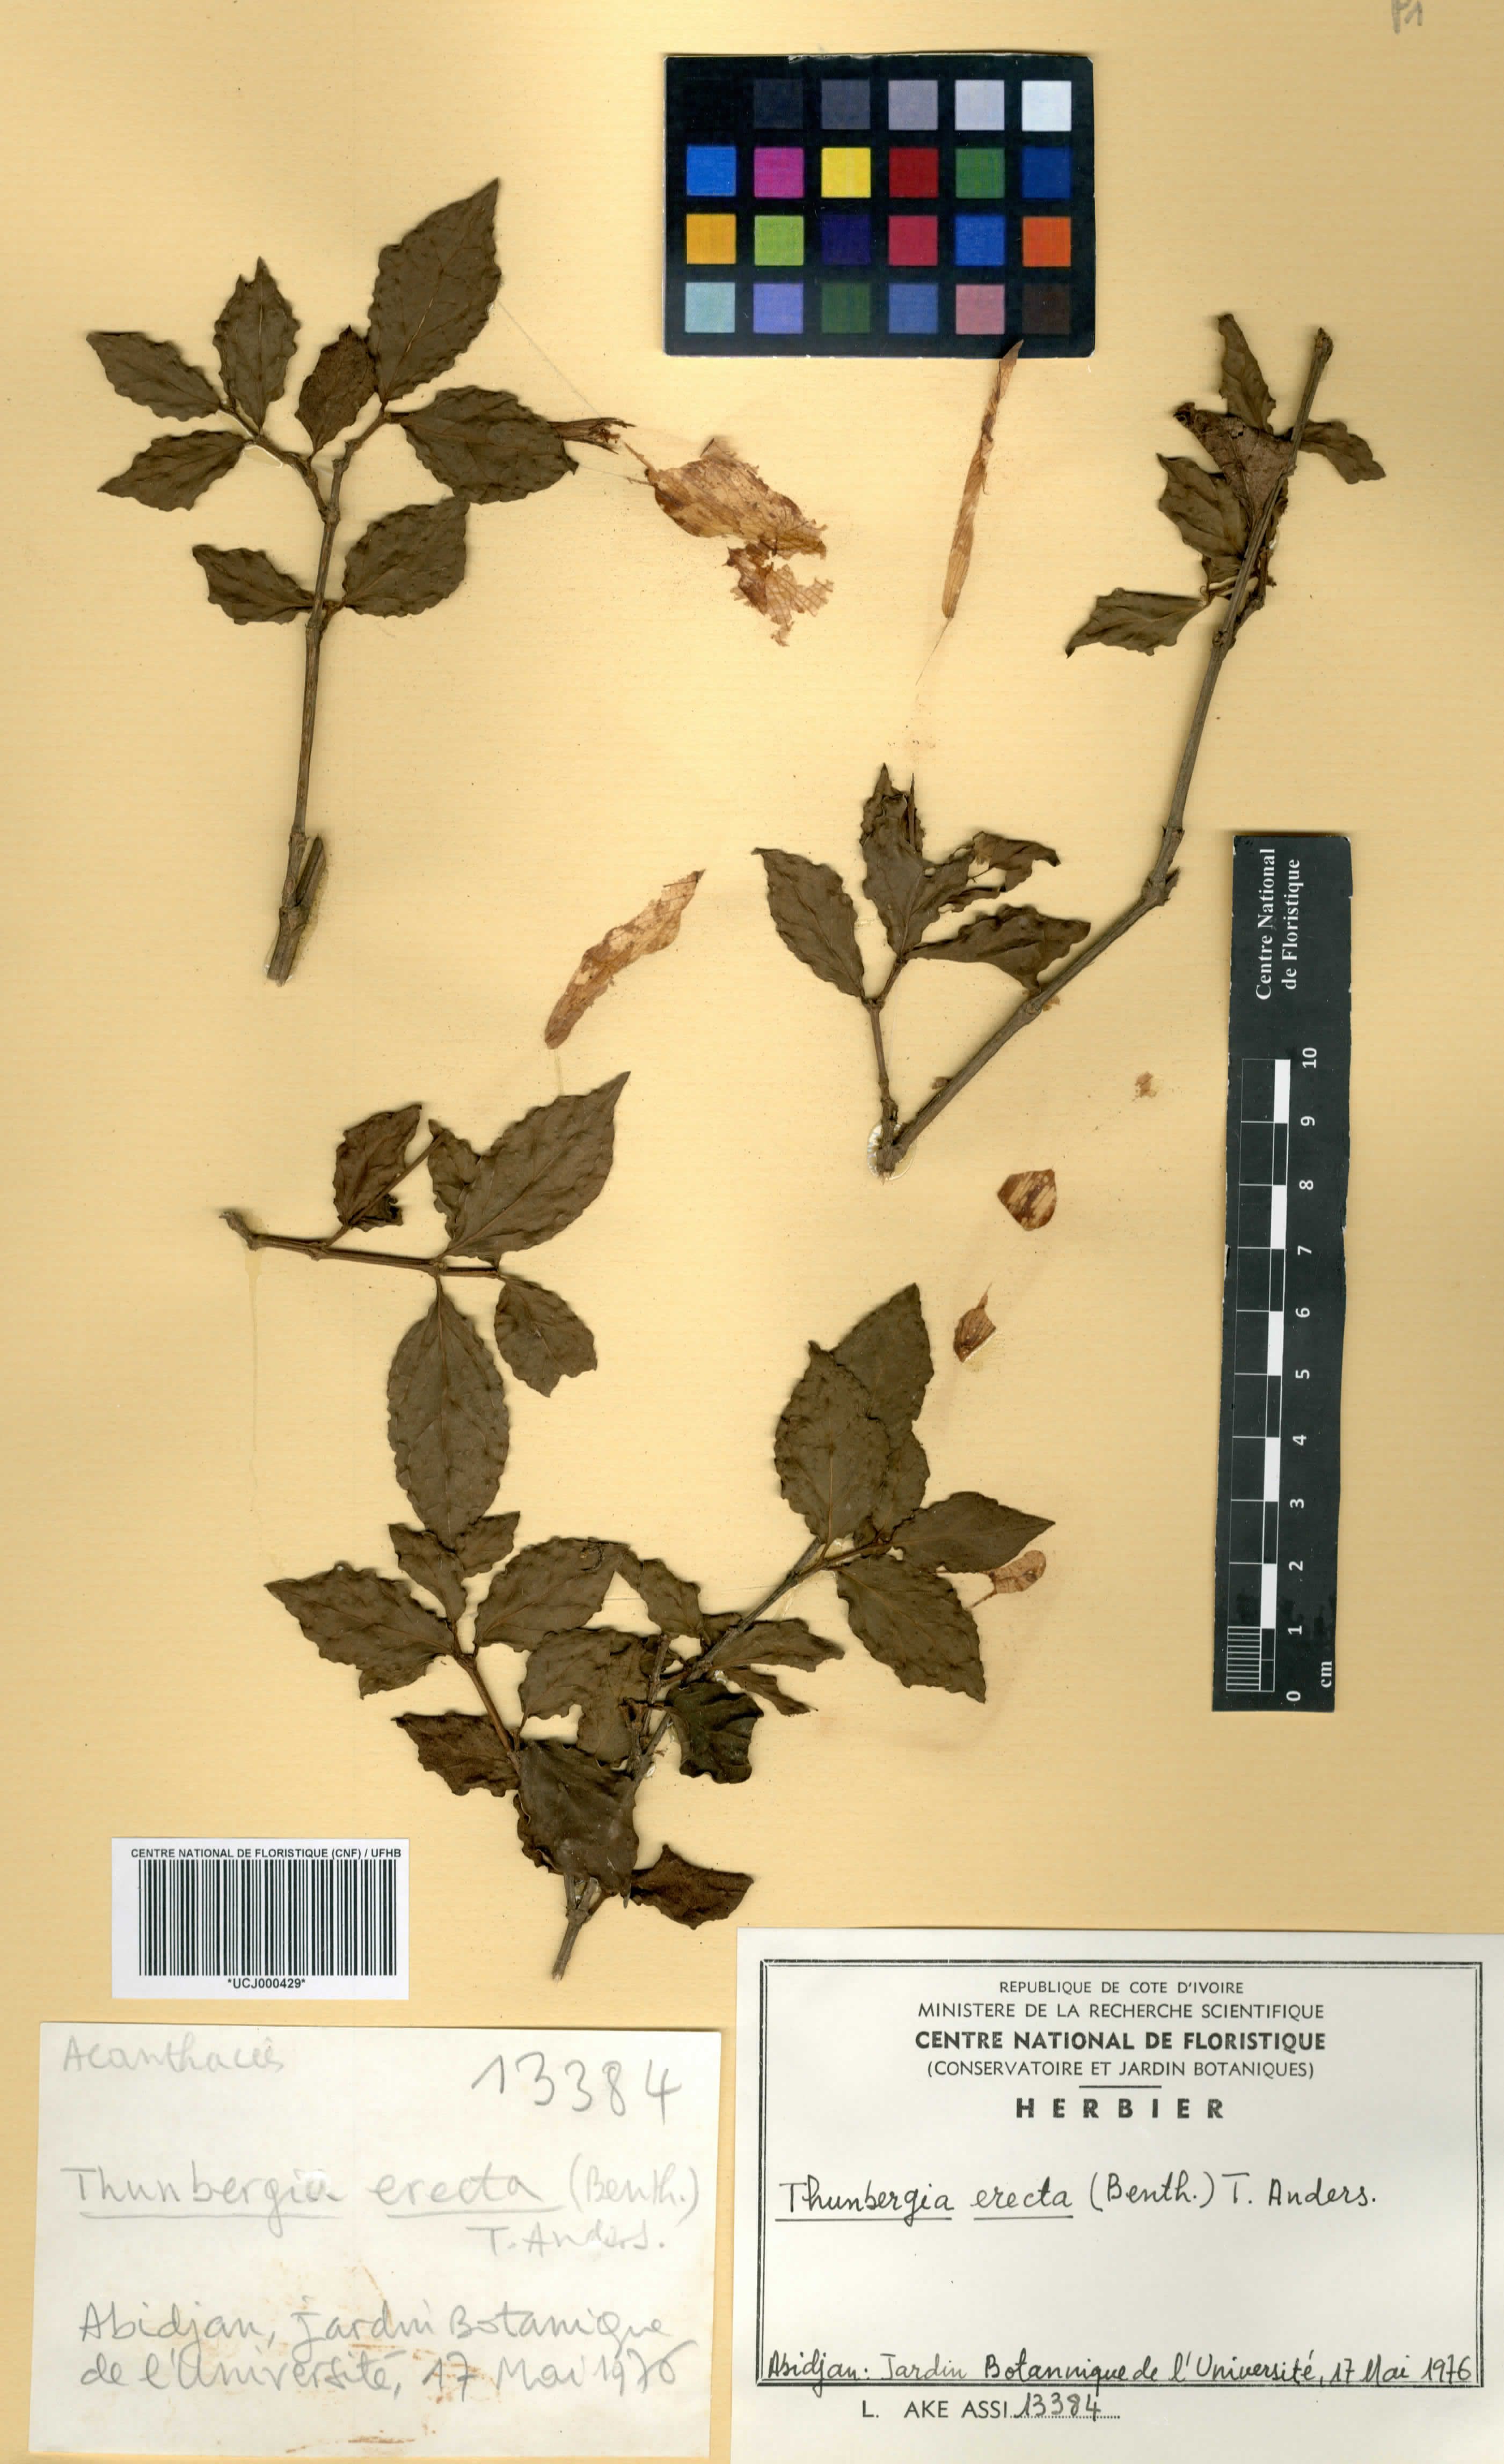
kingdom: Plantae
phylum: Tracheophyta
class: Magnoliopsida
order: Lamiales
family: Acanthaceae
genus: Thunbergia
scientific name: Thunbergia erecta
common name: Bush clockvine
